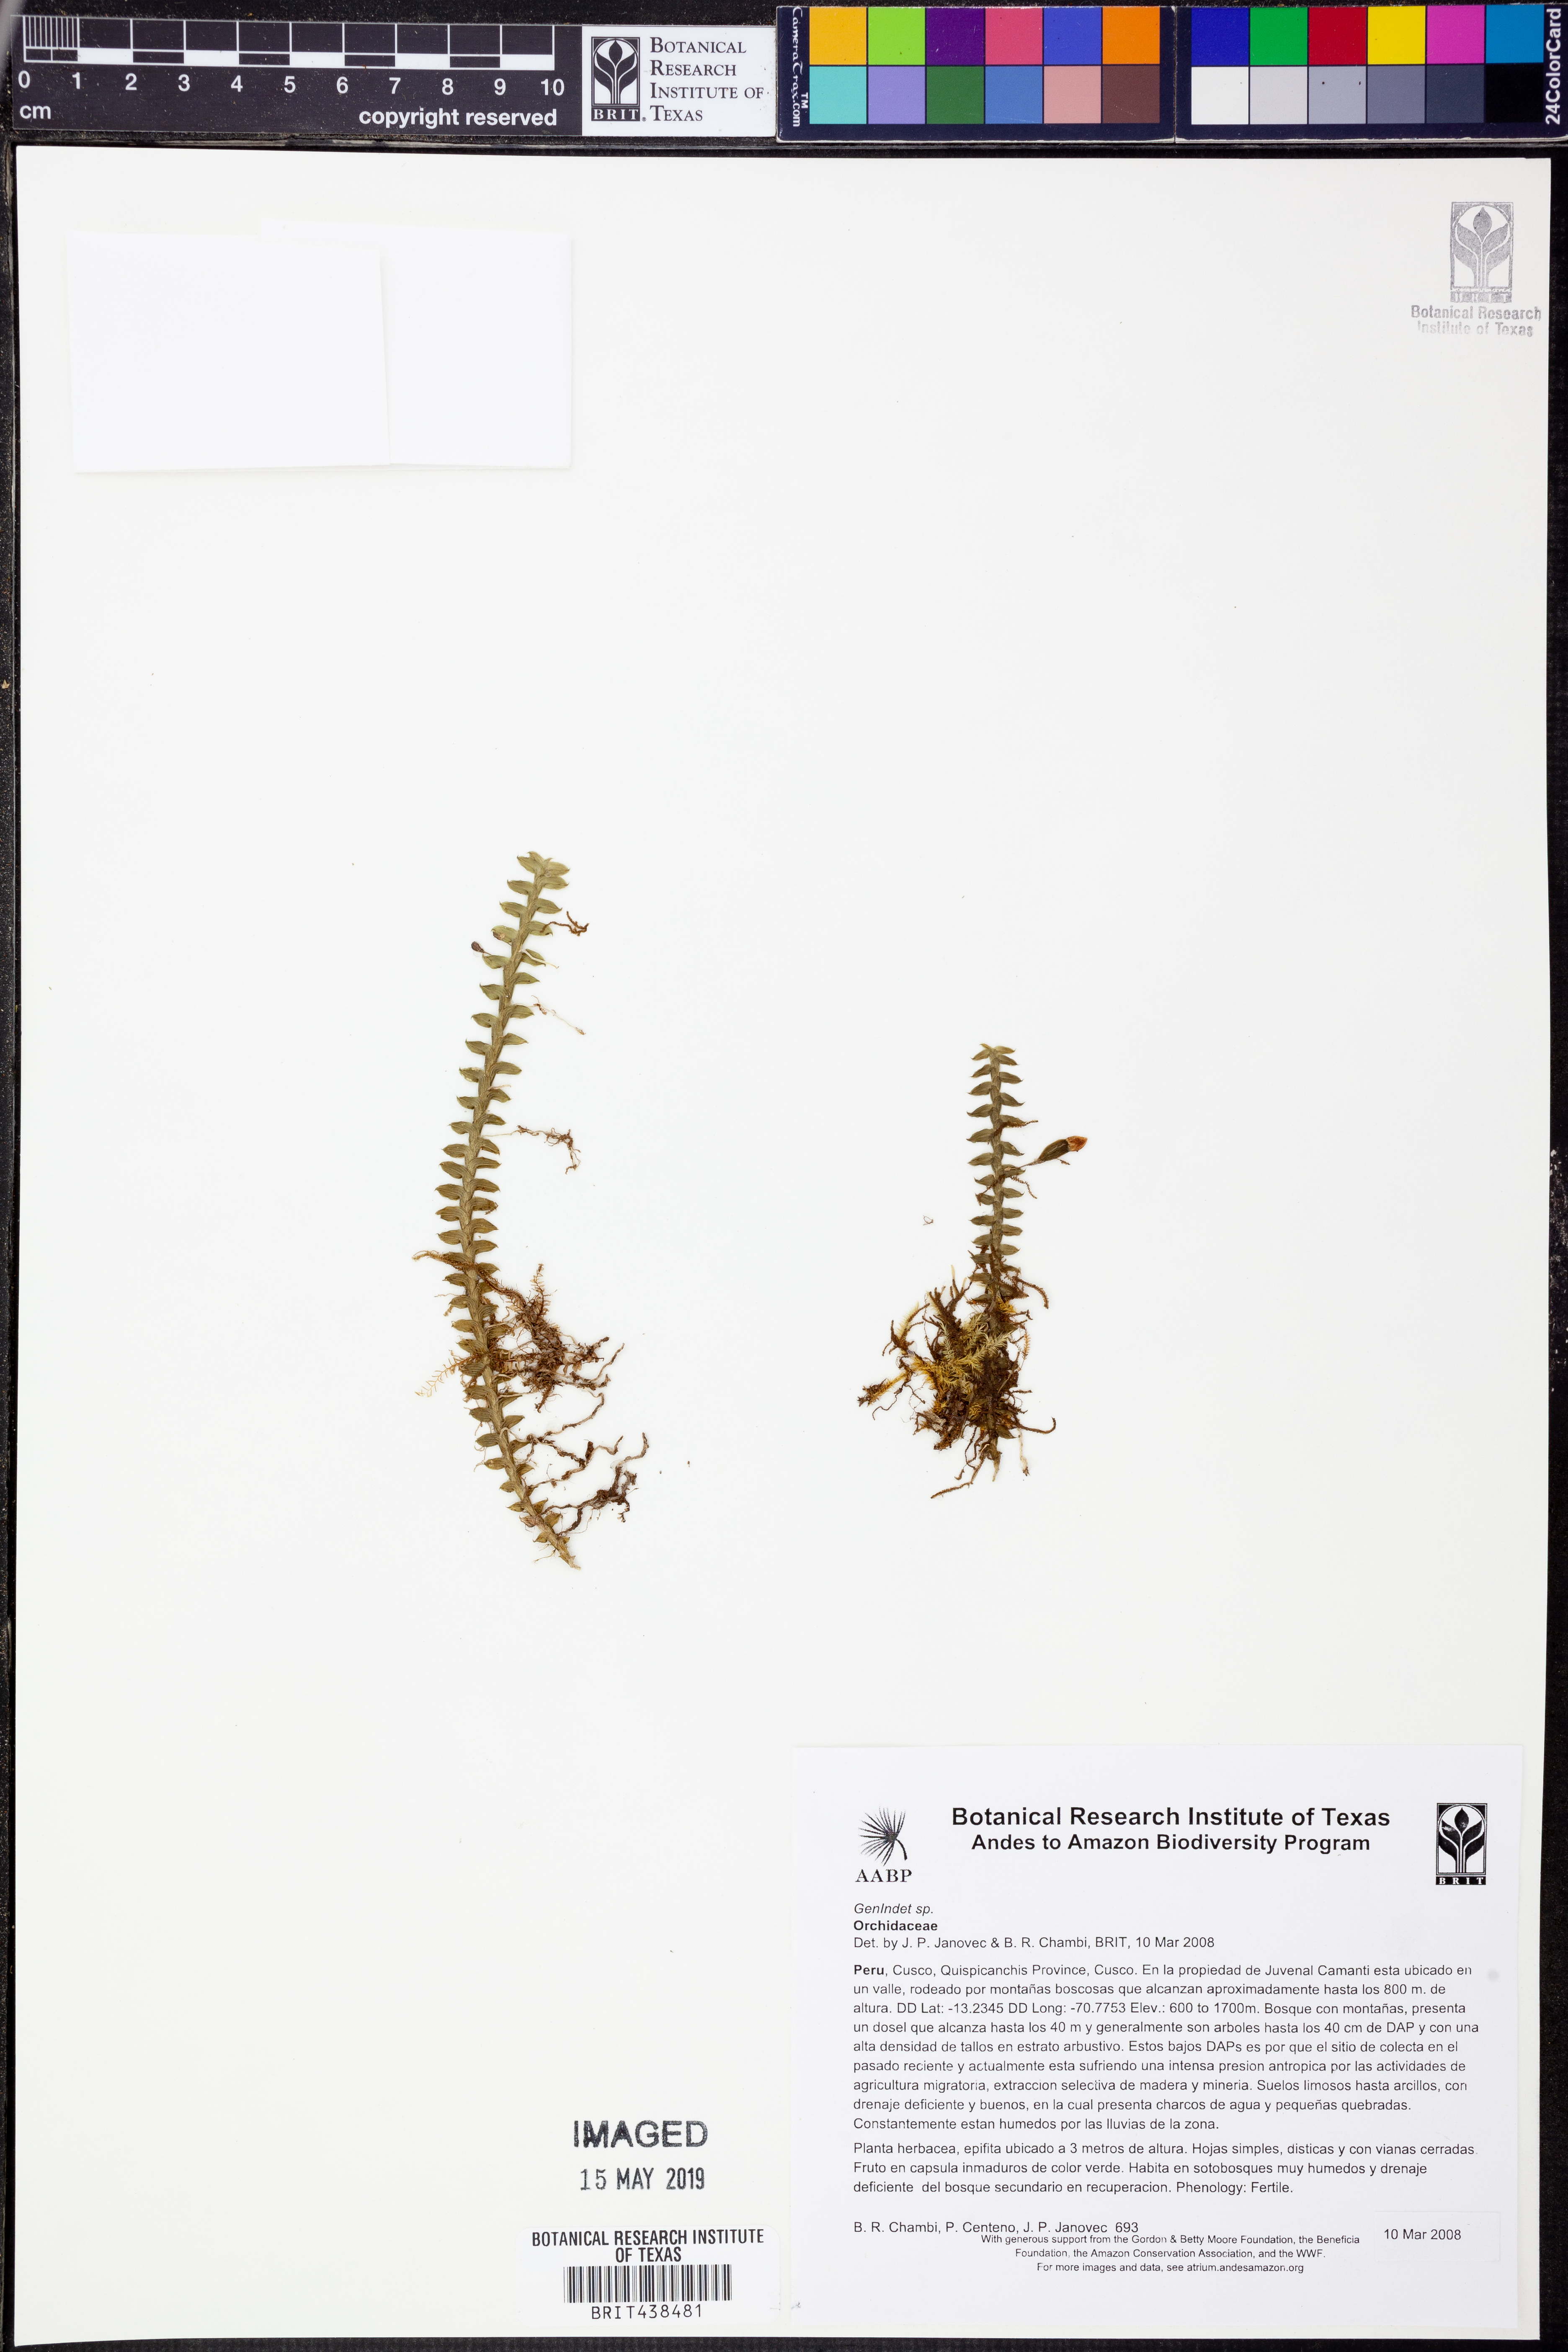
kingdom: Plantae
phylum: Tracheophyta
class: Liliopsida
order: Asparagales
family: Orchidaceae
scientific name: Orchidaceae
